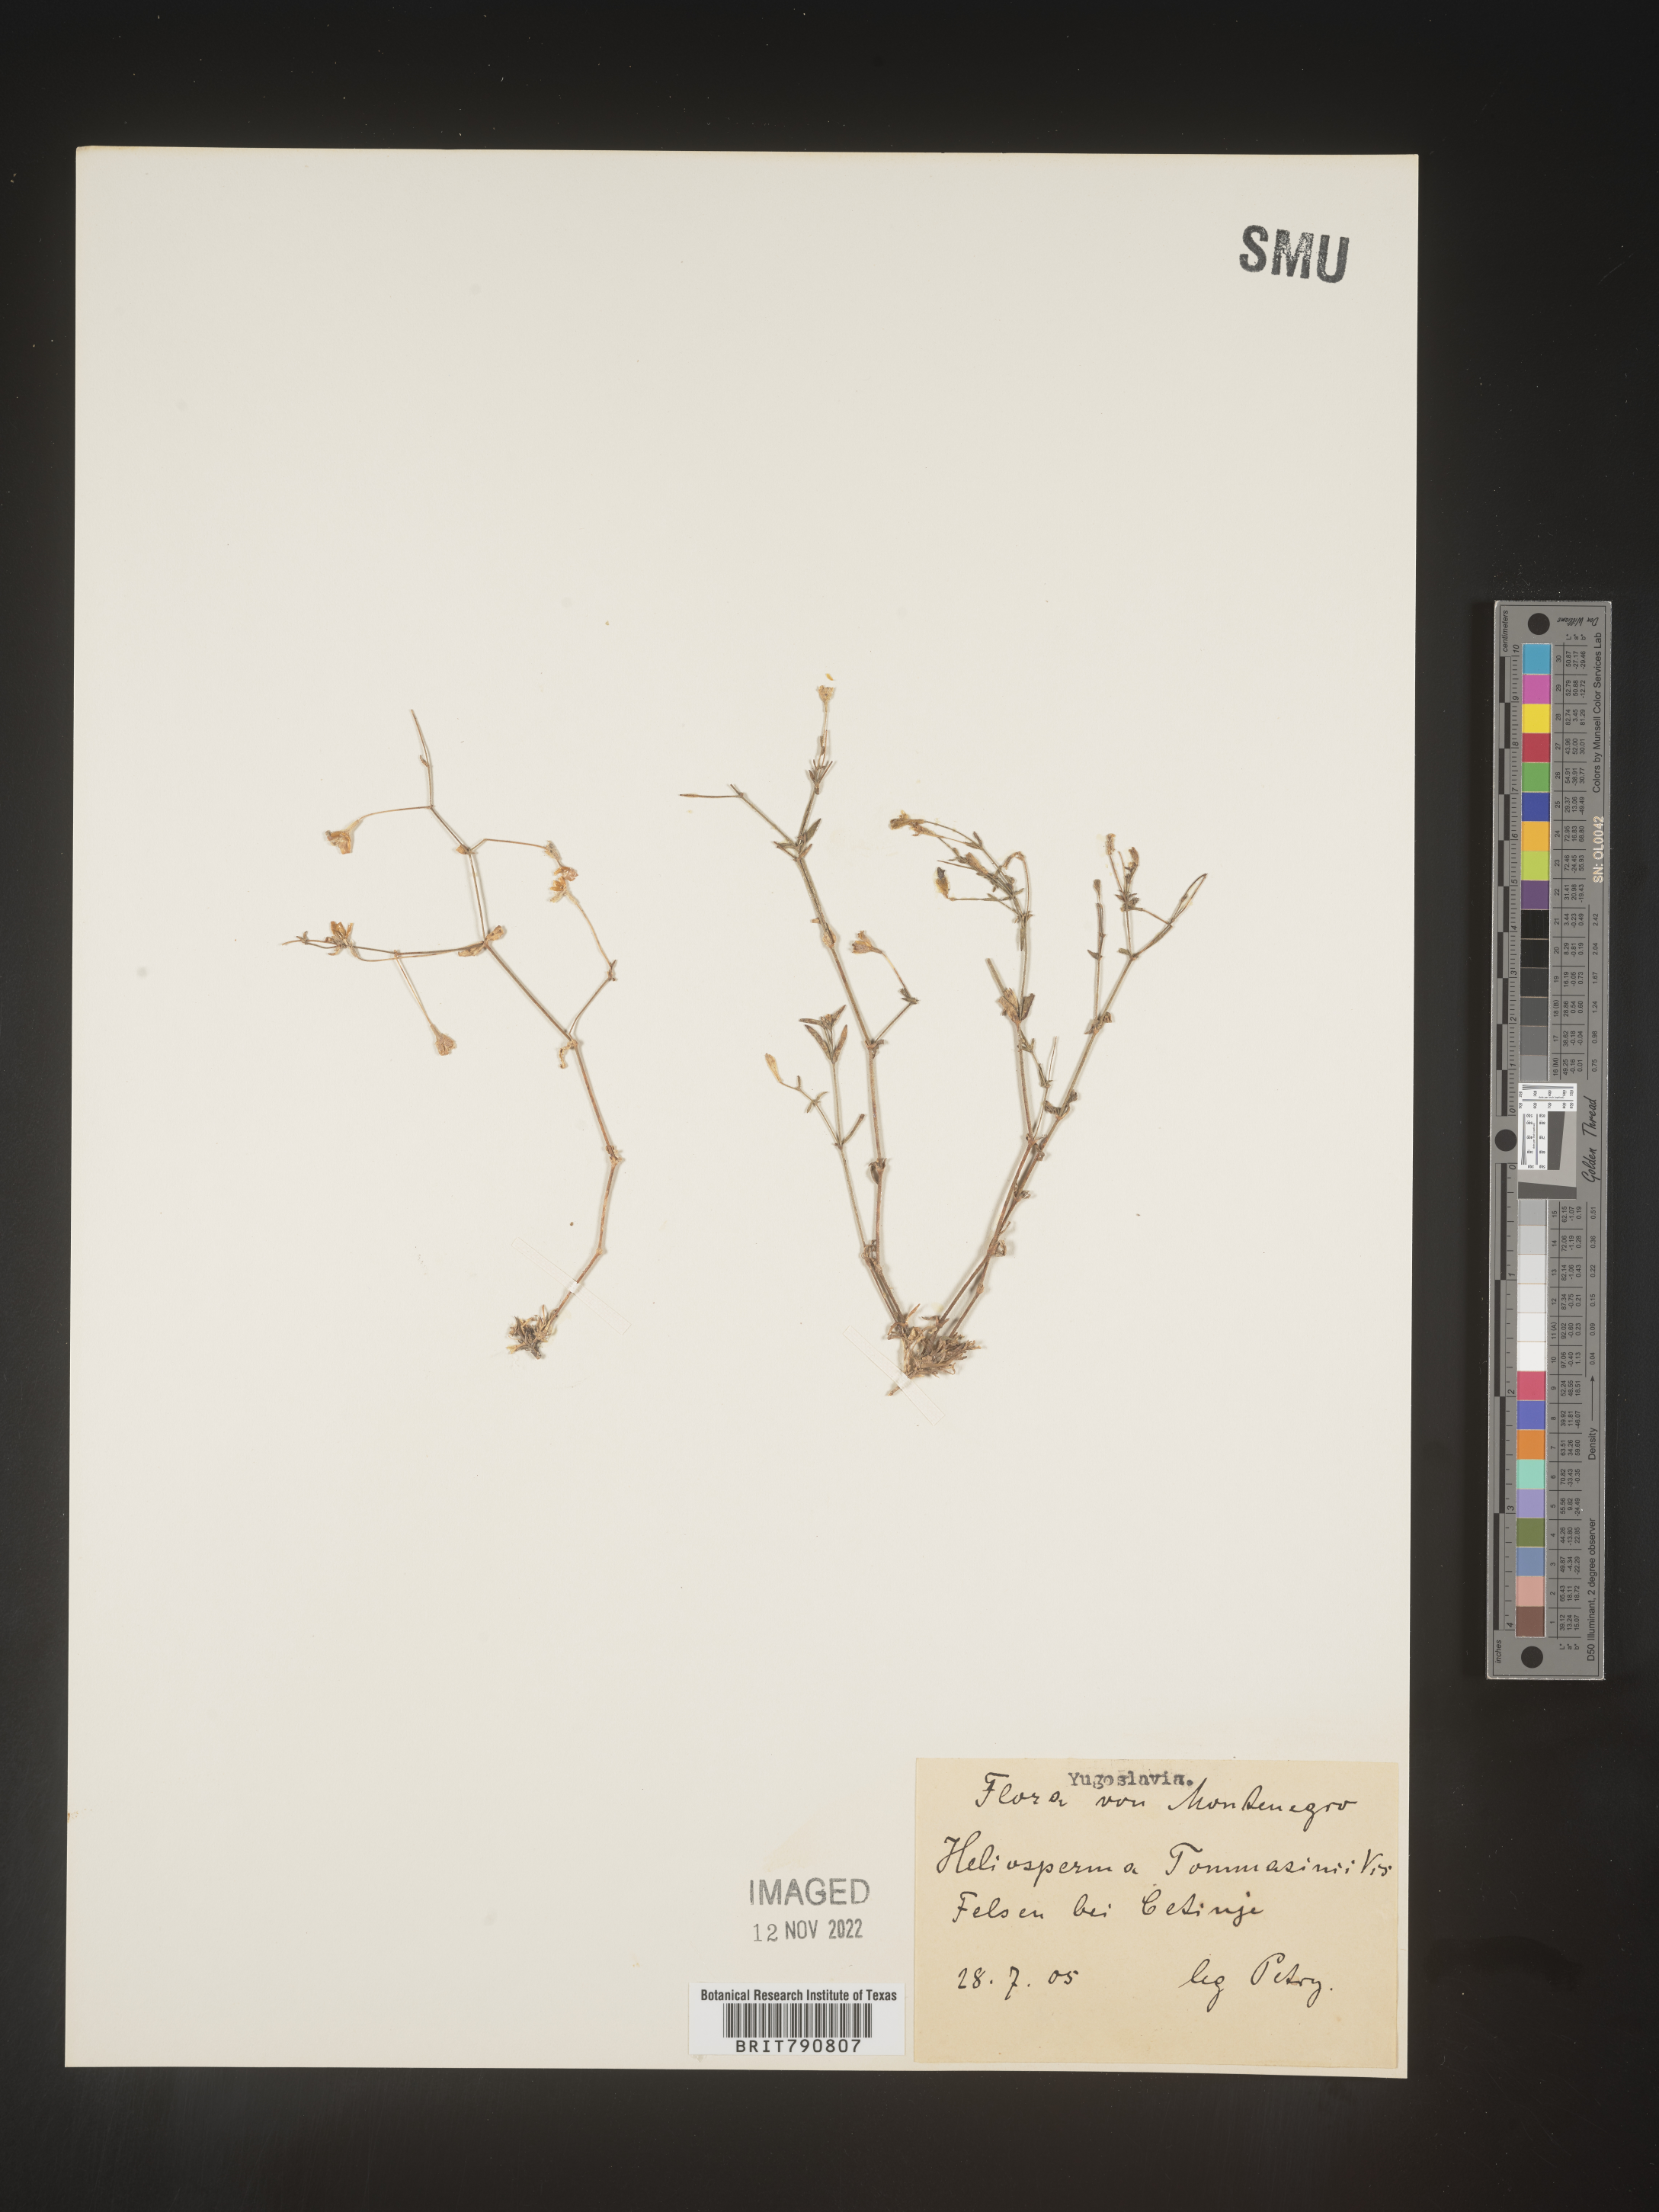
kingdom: Plantae
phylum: Tracheophyta
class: Magnoliopsida
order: Caryophyllales
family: Caryophyllaceae
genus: Heliosperma
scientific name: Heliosperma
